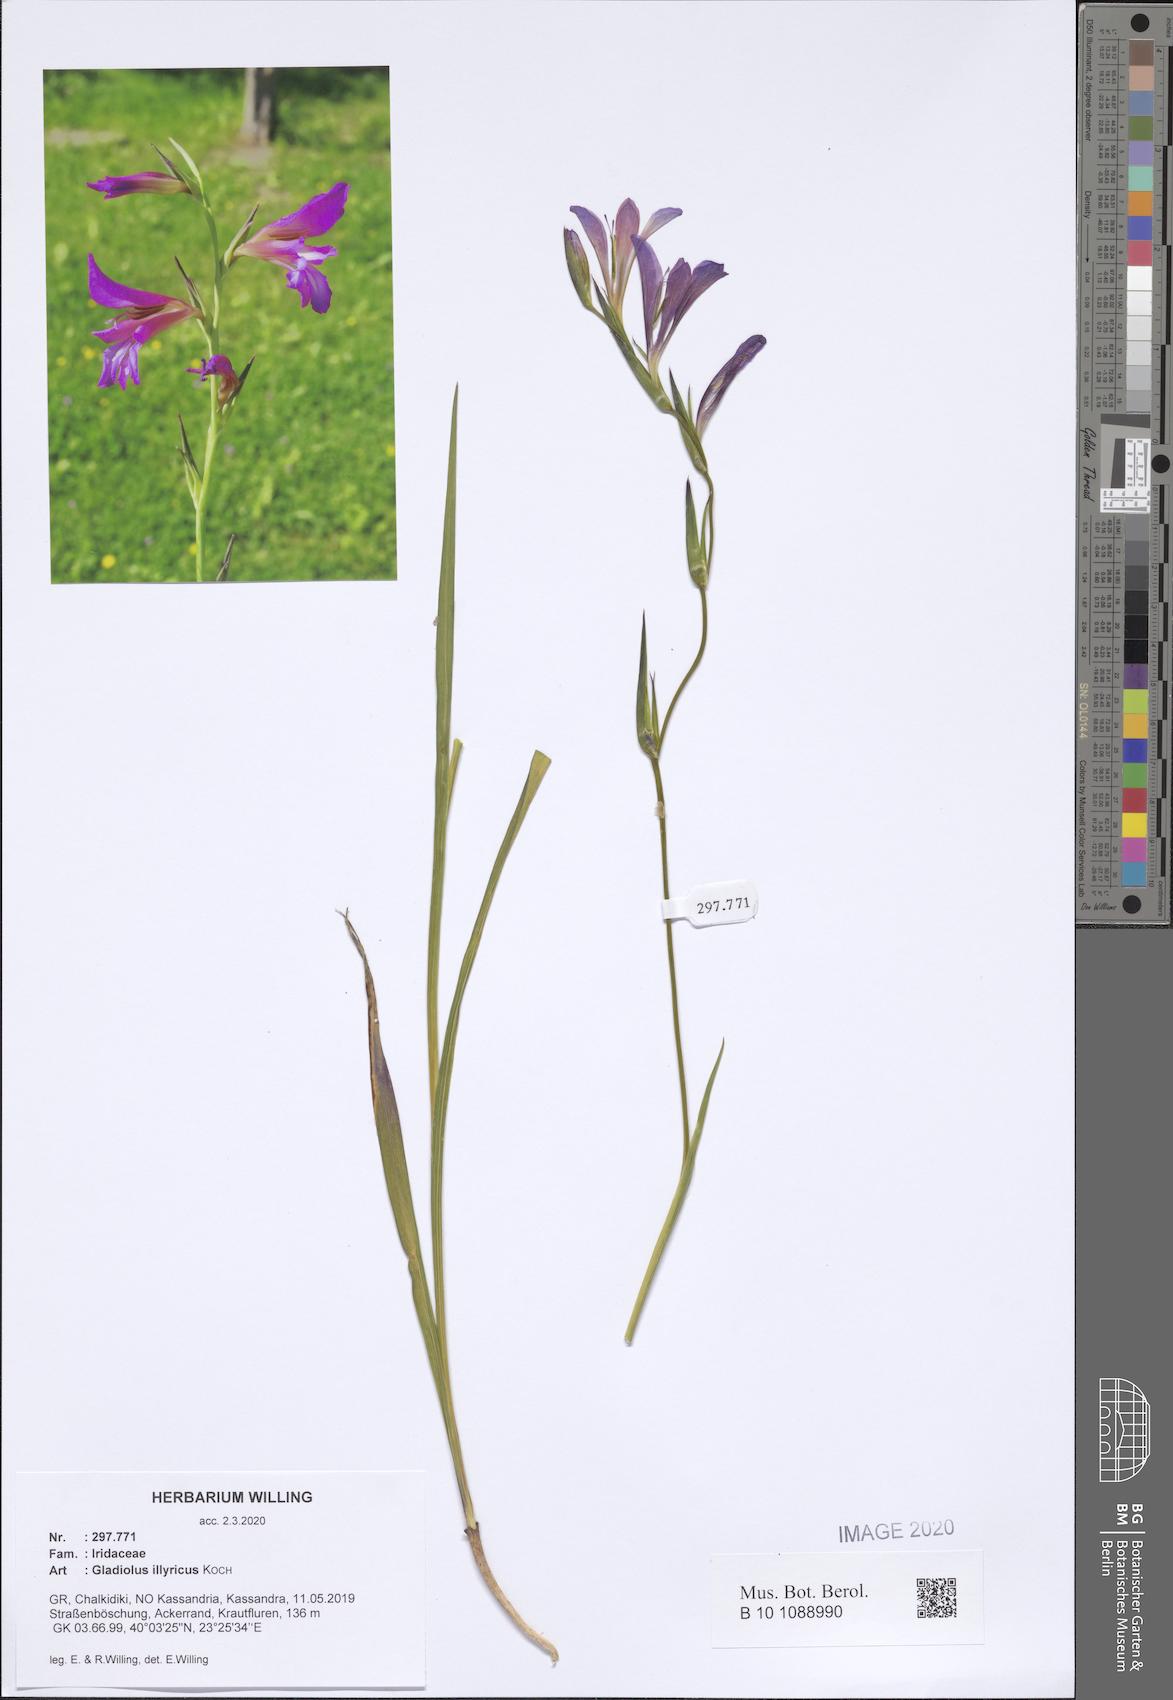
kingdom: Plantae
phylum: Tracheophyta
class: Liliopsida
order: Asparagales
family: Iridaceae
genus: Gladiolus
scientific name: Gladiolus illyricus
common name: Wild gladiolus
